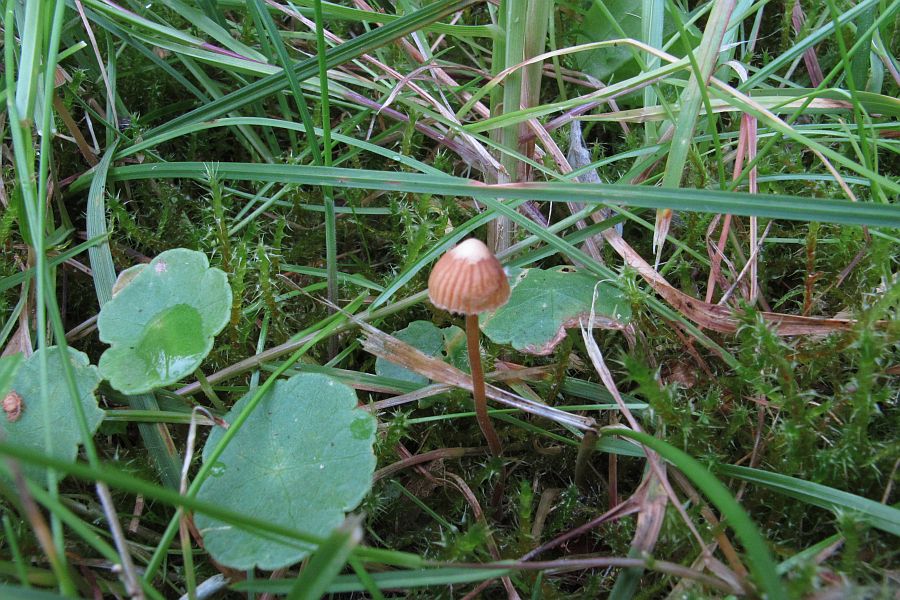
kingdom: Fungi
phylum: Basidiomycota
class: Agaricomycetes
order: Agaricales
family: Hymenogastraceae
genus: Galerina
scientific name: Galerina vittiformis
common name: Hairy leg bell
